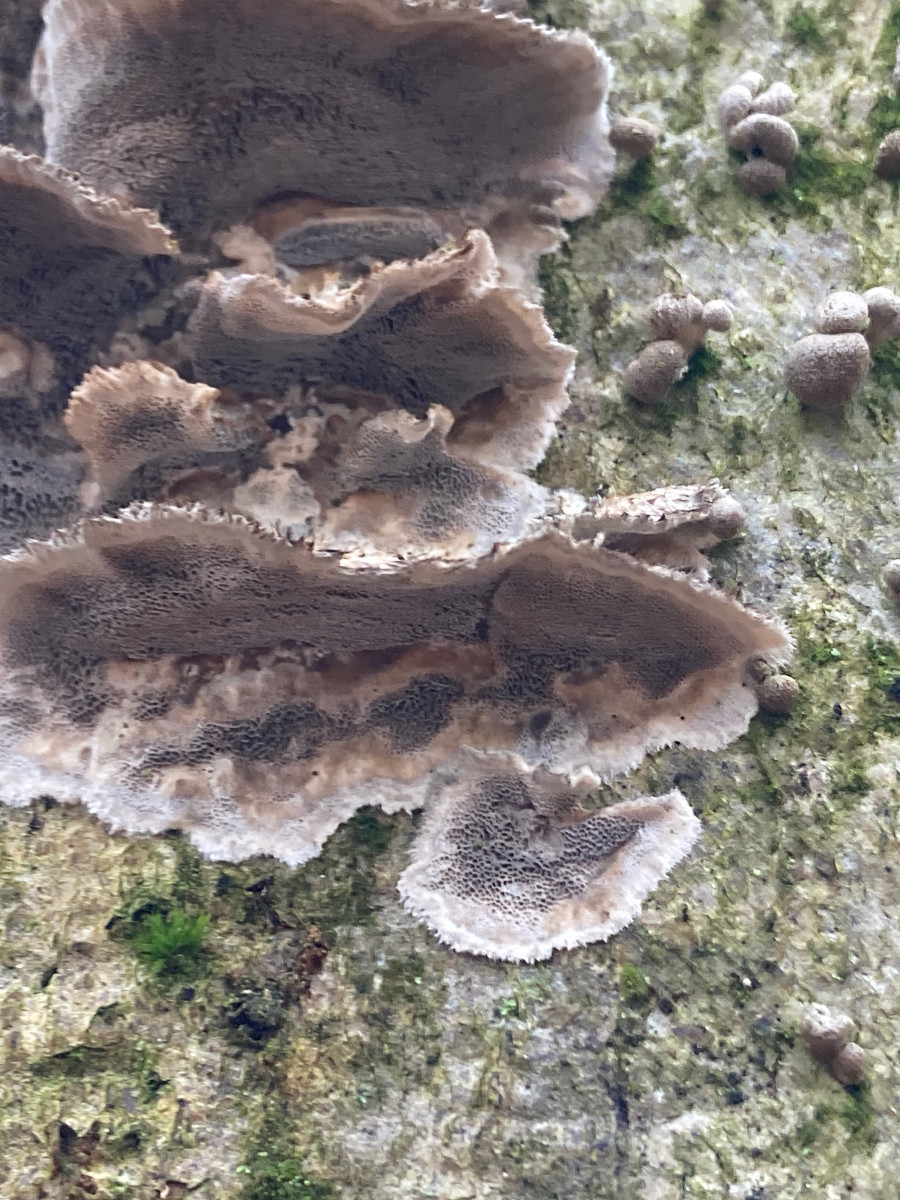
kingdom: Fungi
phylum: Basidiomycota
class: Agaricomycetes
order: Polyporales
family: Phanerochaetaceae
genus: Bjerkandera
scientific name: Bjerkandera adusta
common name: sveden sodporesvamp
